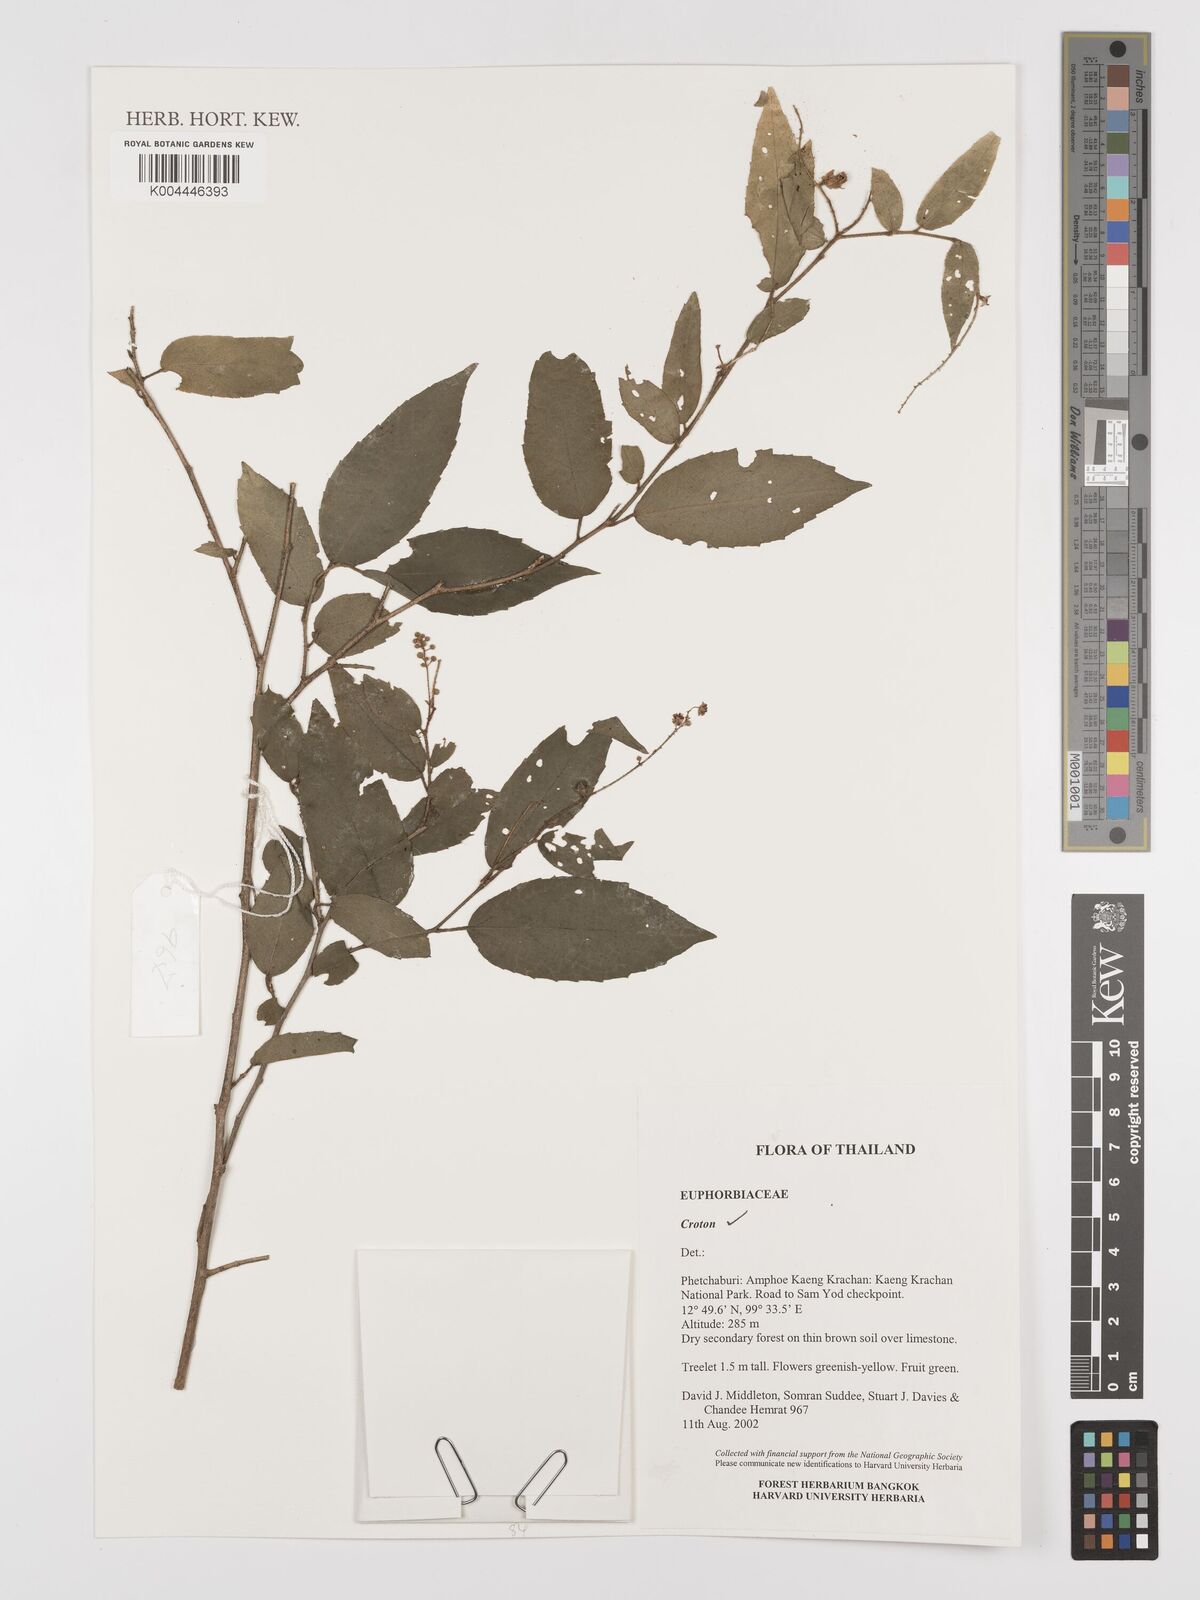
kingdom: Plantae
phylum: Tracheophyta
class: Magnoliopsida
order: Malpighiales
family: Euphorbiaceae
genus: Croton
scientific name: Croton
